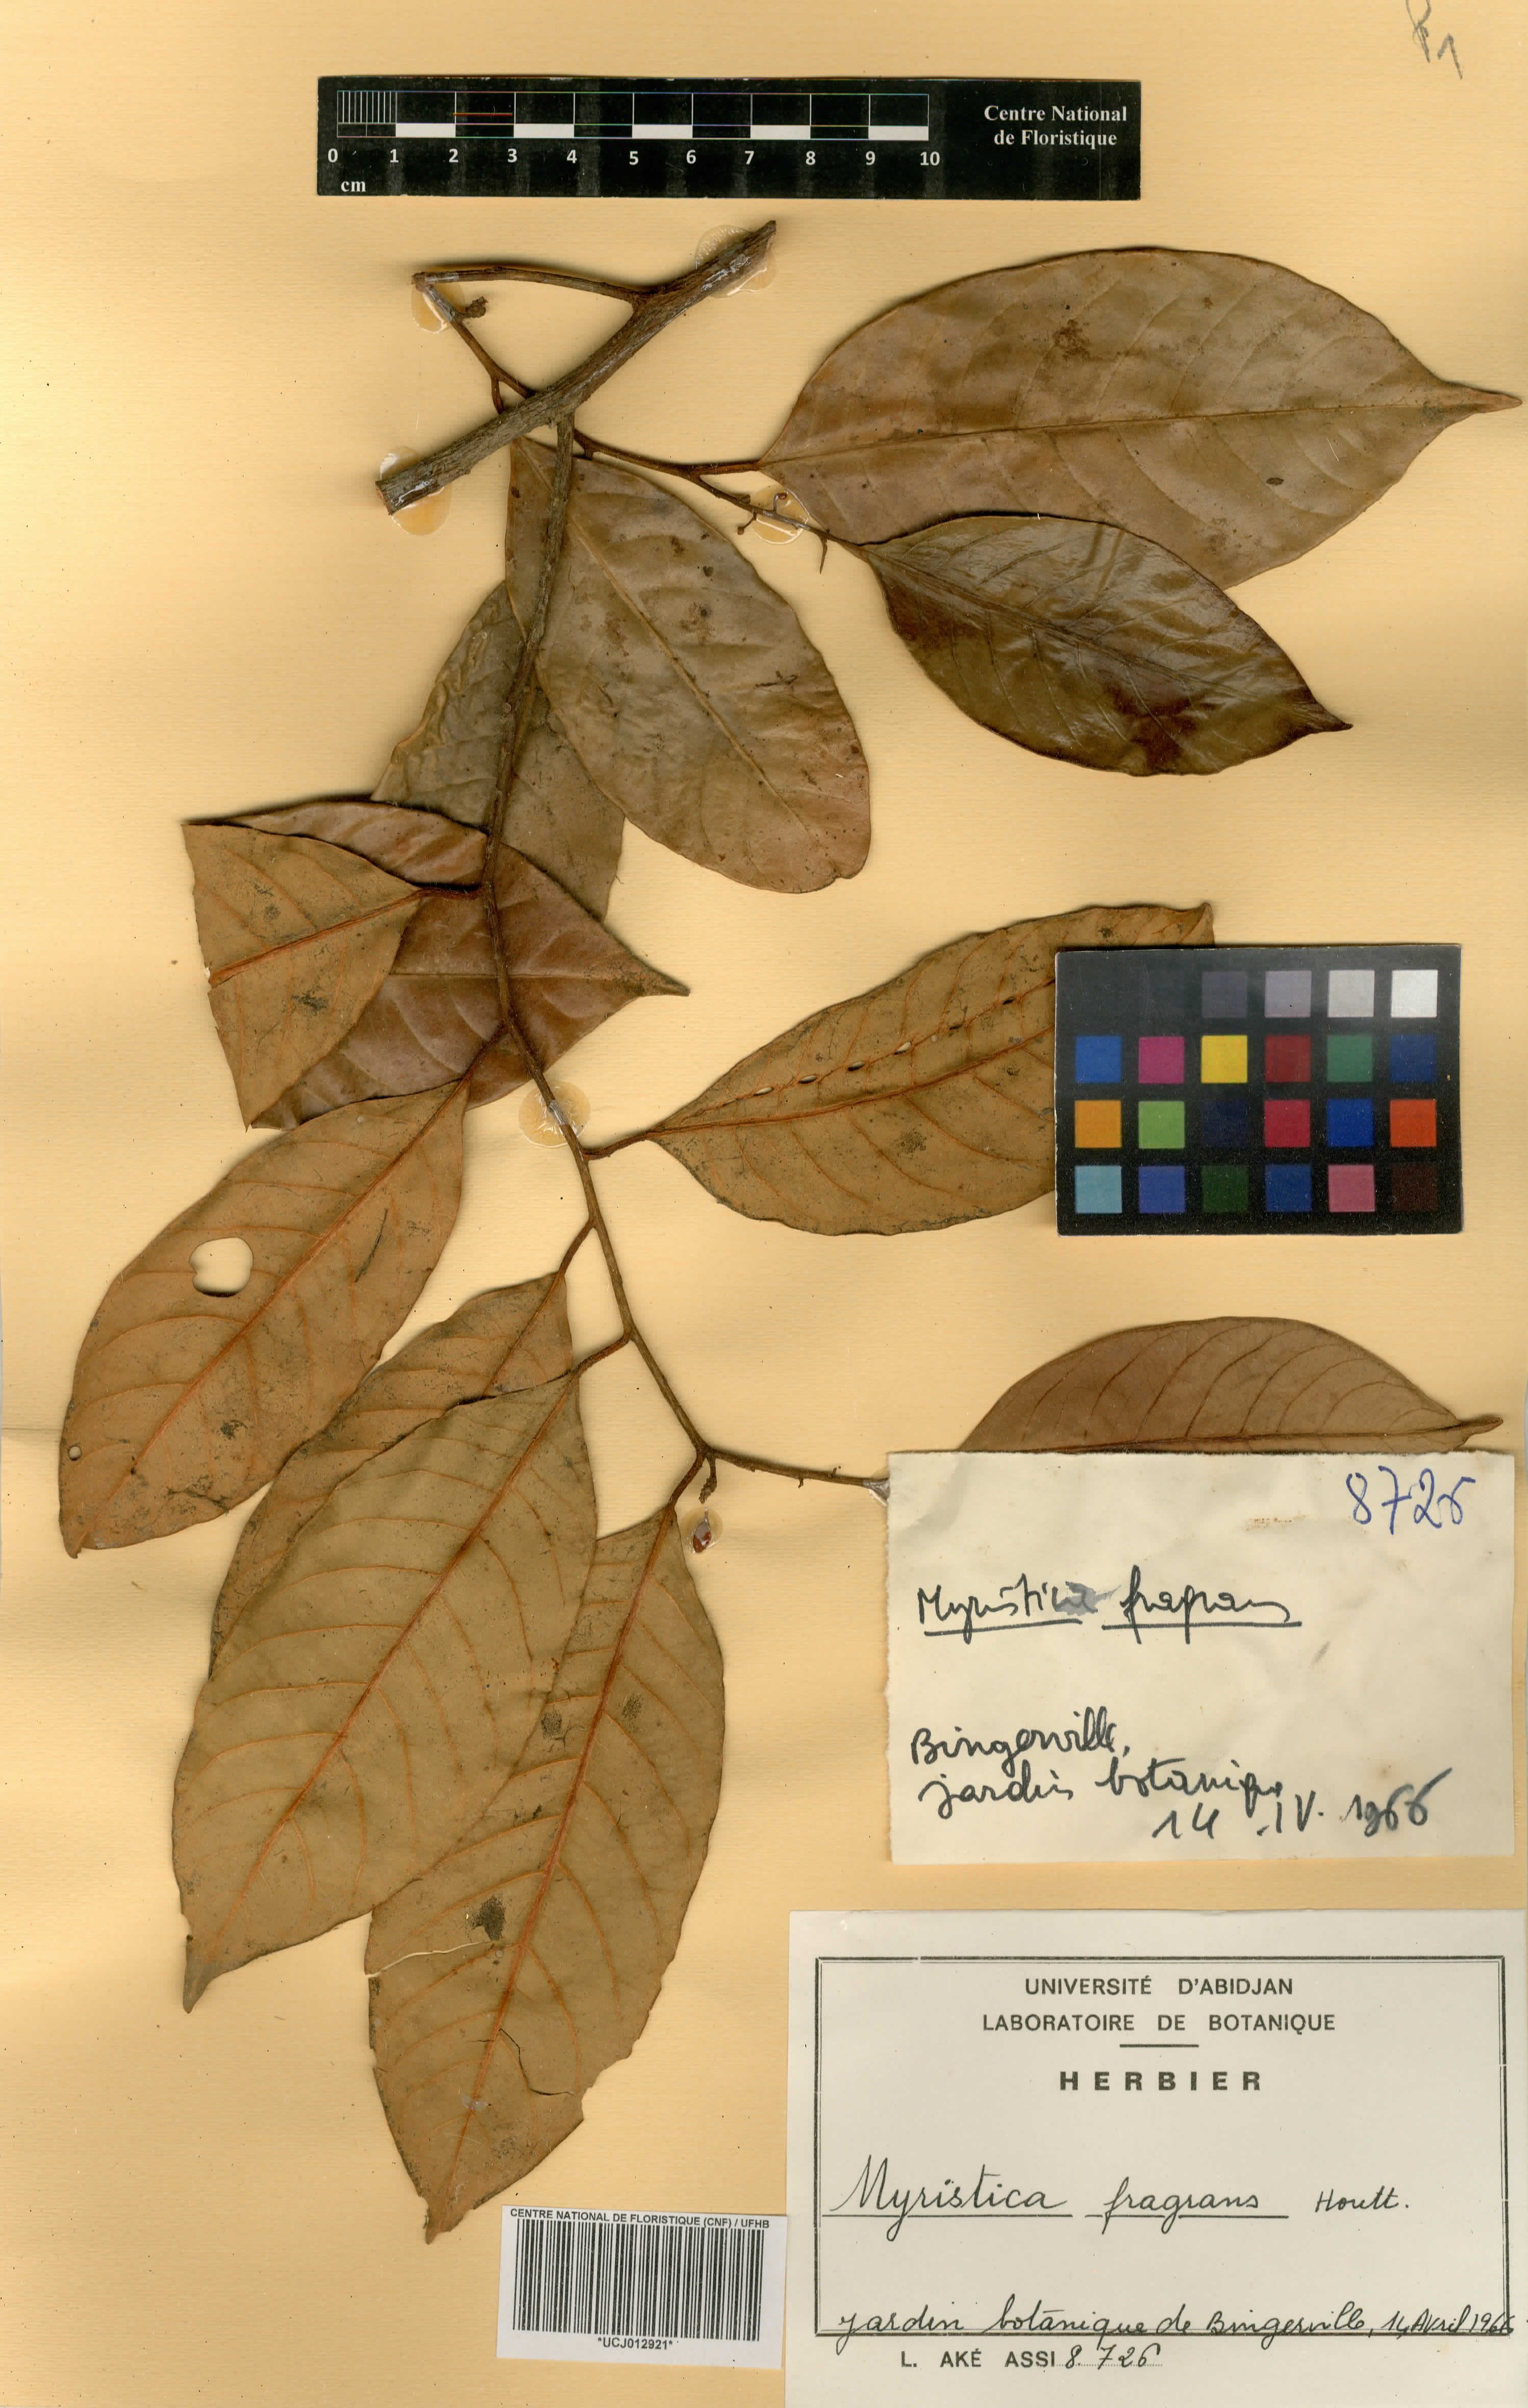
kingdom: Plantae
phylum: Tracheophyta
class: Magnoliopsida
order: Magnoliales
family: Myristicaceae
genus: Myristica
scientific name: Myristica fragrans
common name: Nutmeg
